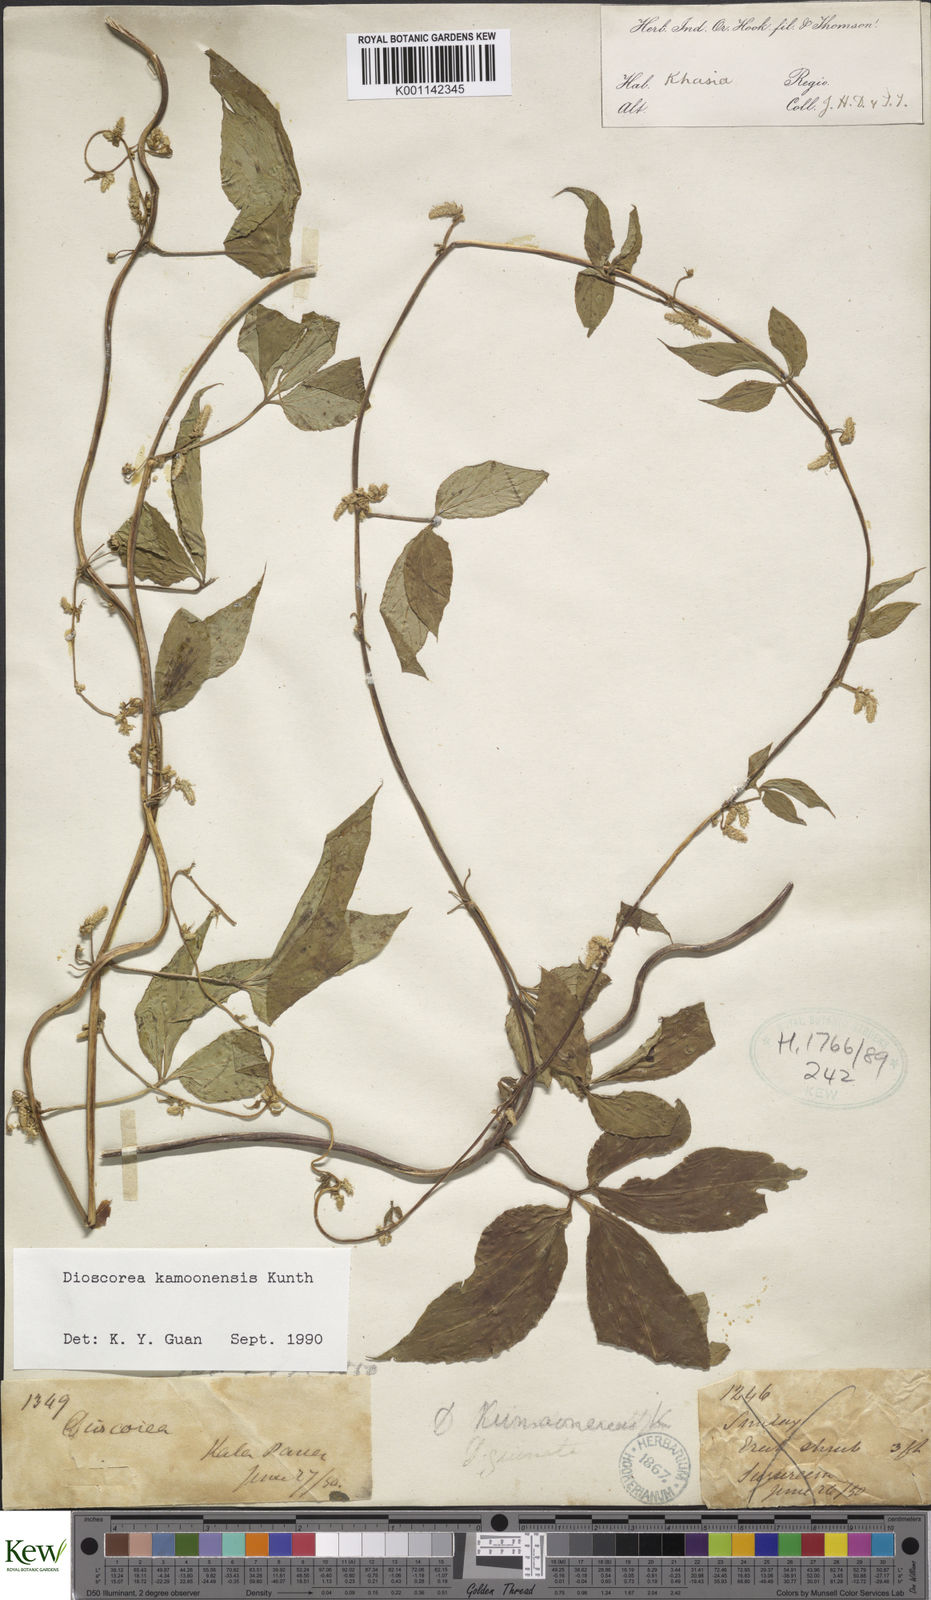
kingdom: Plantae
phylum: Tracheophyta
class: Liliopsida
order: Dioscoreales
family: Dioscoreaceae
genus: Dioscorea
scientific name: Dioscorea kamoonensis
